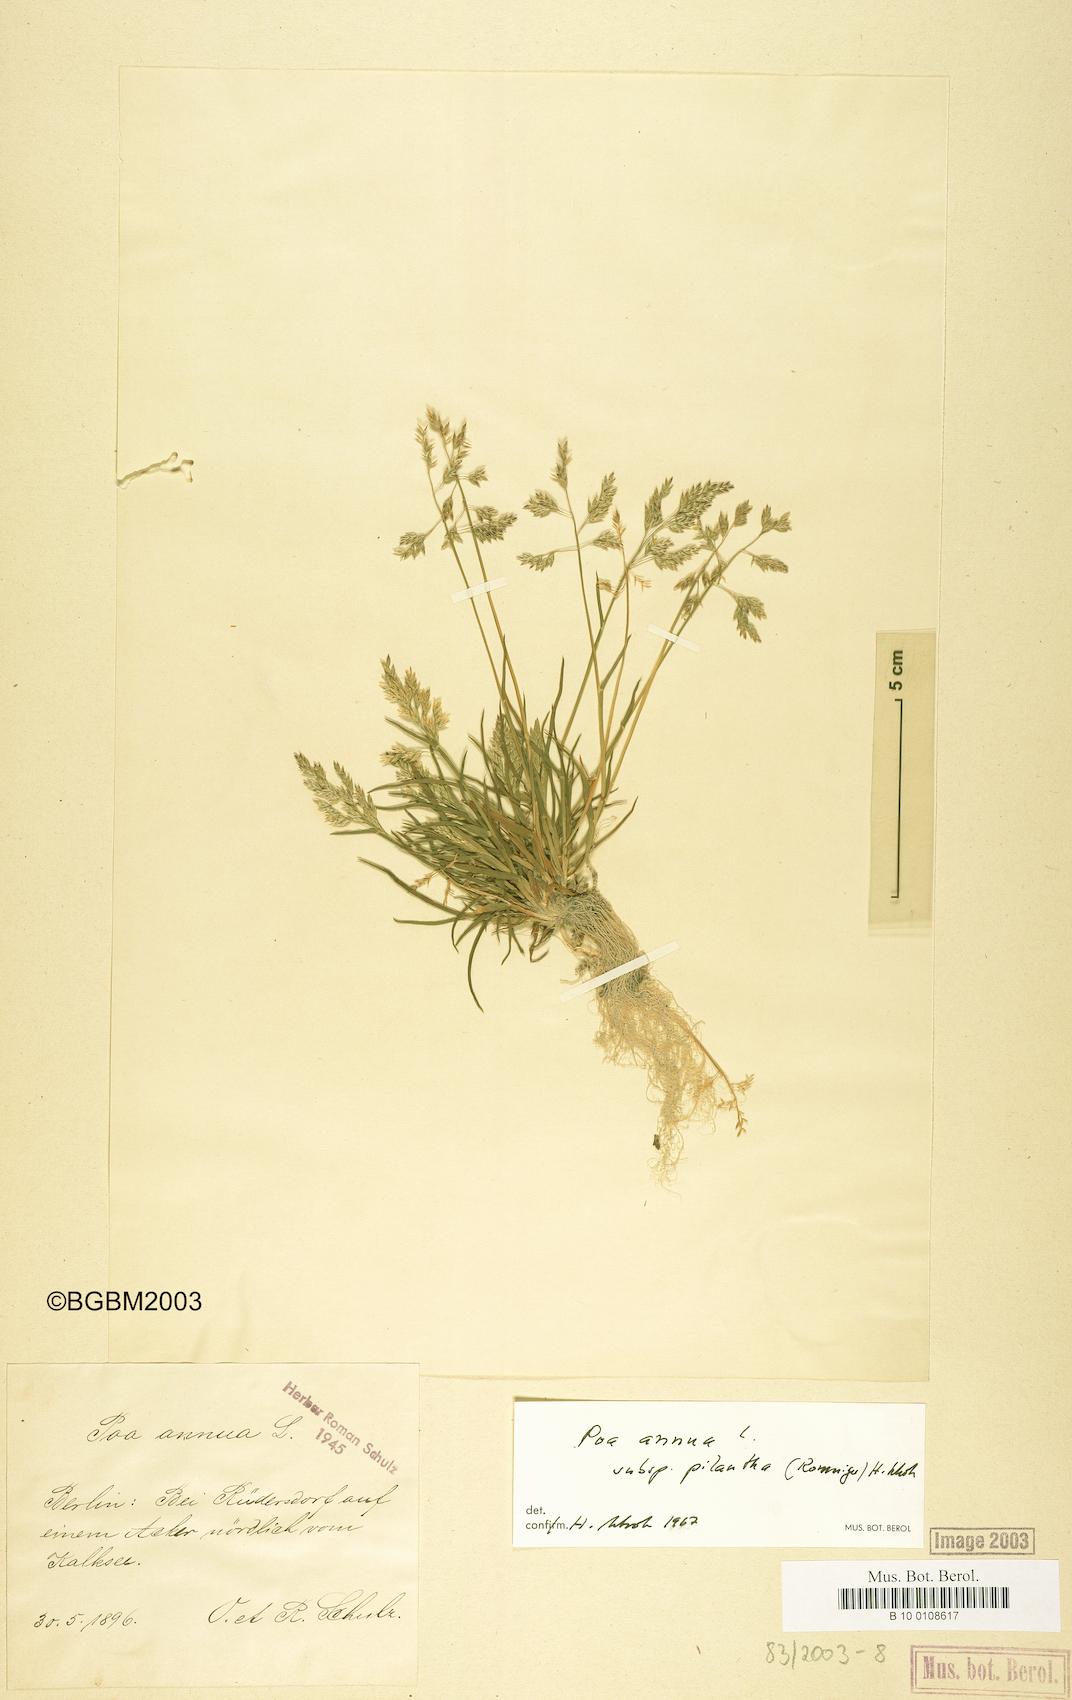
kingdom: Plantae
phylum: Tracheophyta
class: Liliopsida
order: Poales
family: Poaceae
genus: Poa
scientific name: Poa annua
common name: Annual bluegrass
